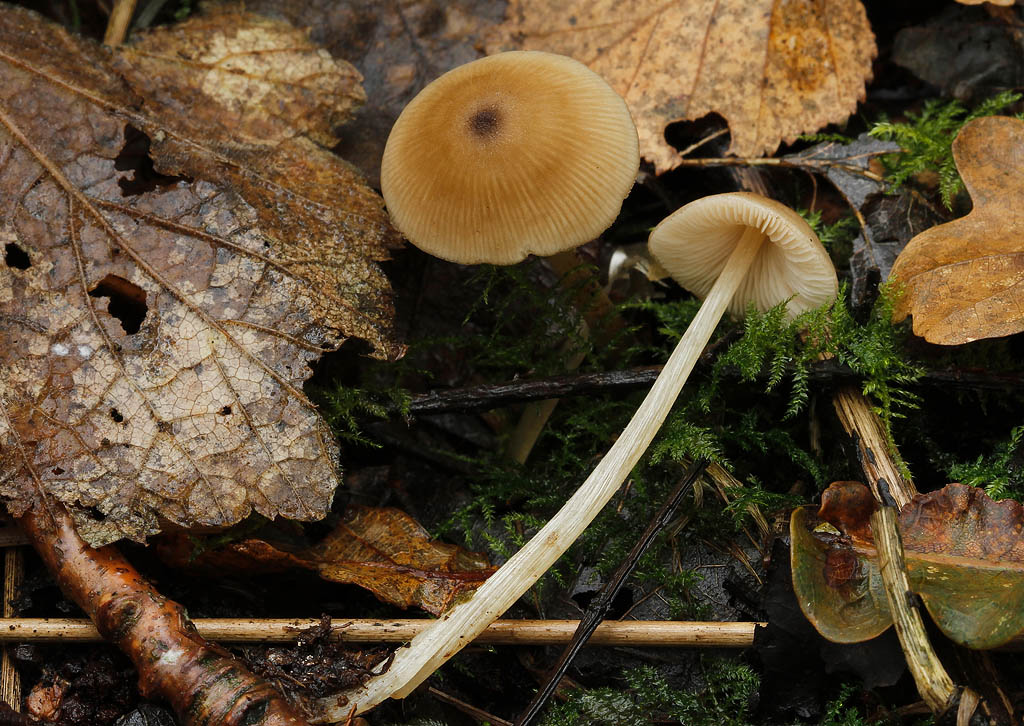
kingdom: Fungi
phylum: Basidiomycota
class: Agaricomycetes
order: Agaricales
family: Entolomataceae
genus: Entoloma
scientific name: Entoloma conferendum
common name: stjernesporet rødblad
